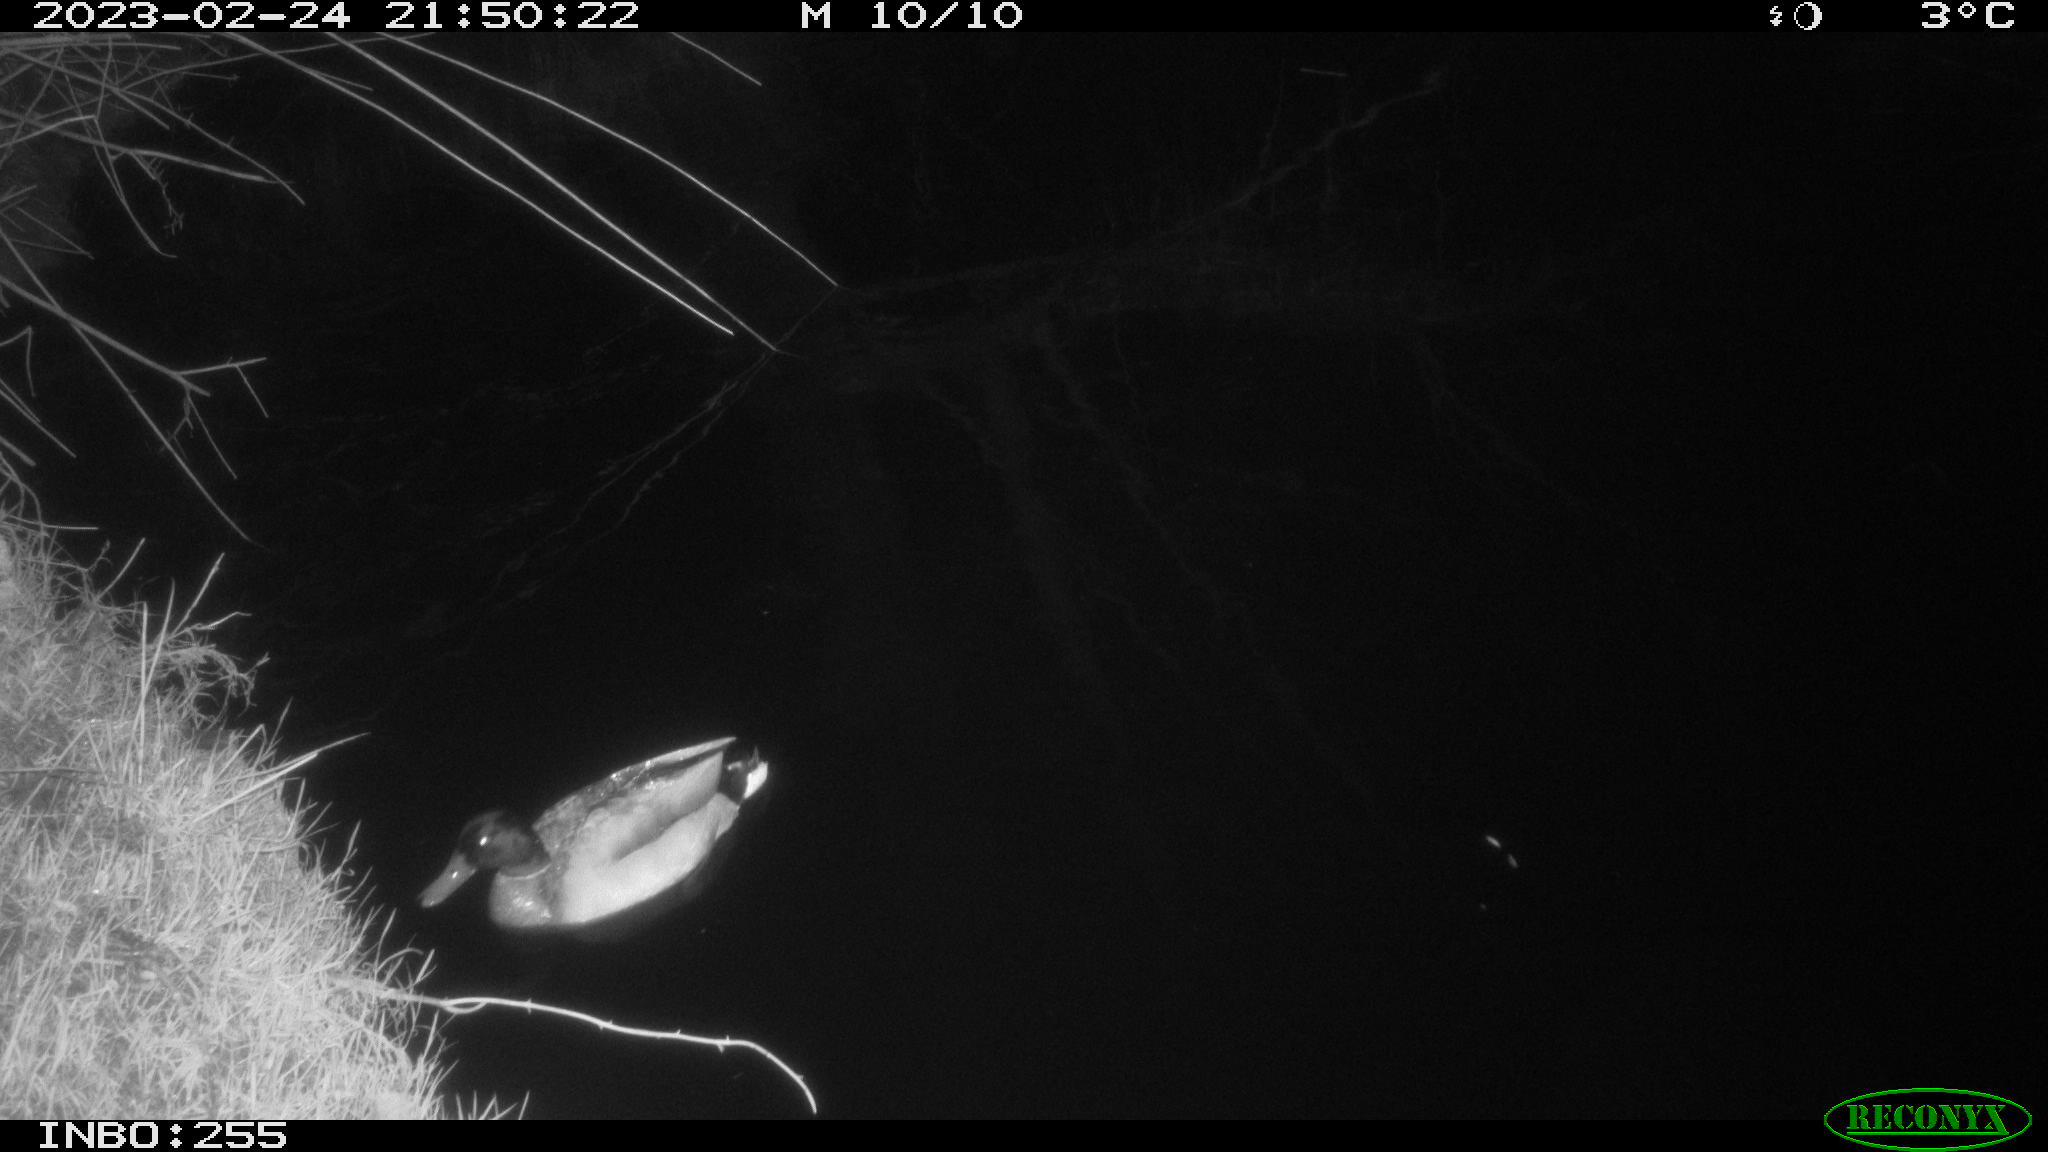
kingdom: Animalia
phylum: Chordata
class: Aves
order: Anseriformes
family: Anatidae
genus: Anas
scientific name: Anas
